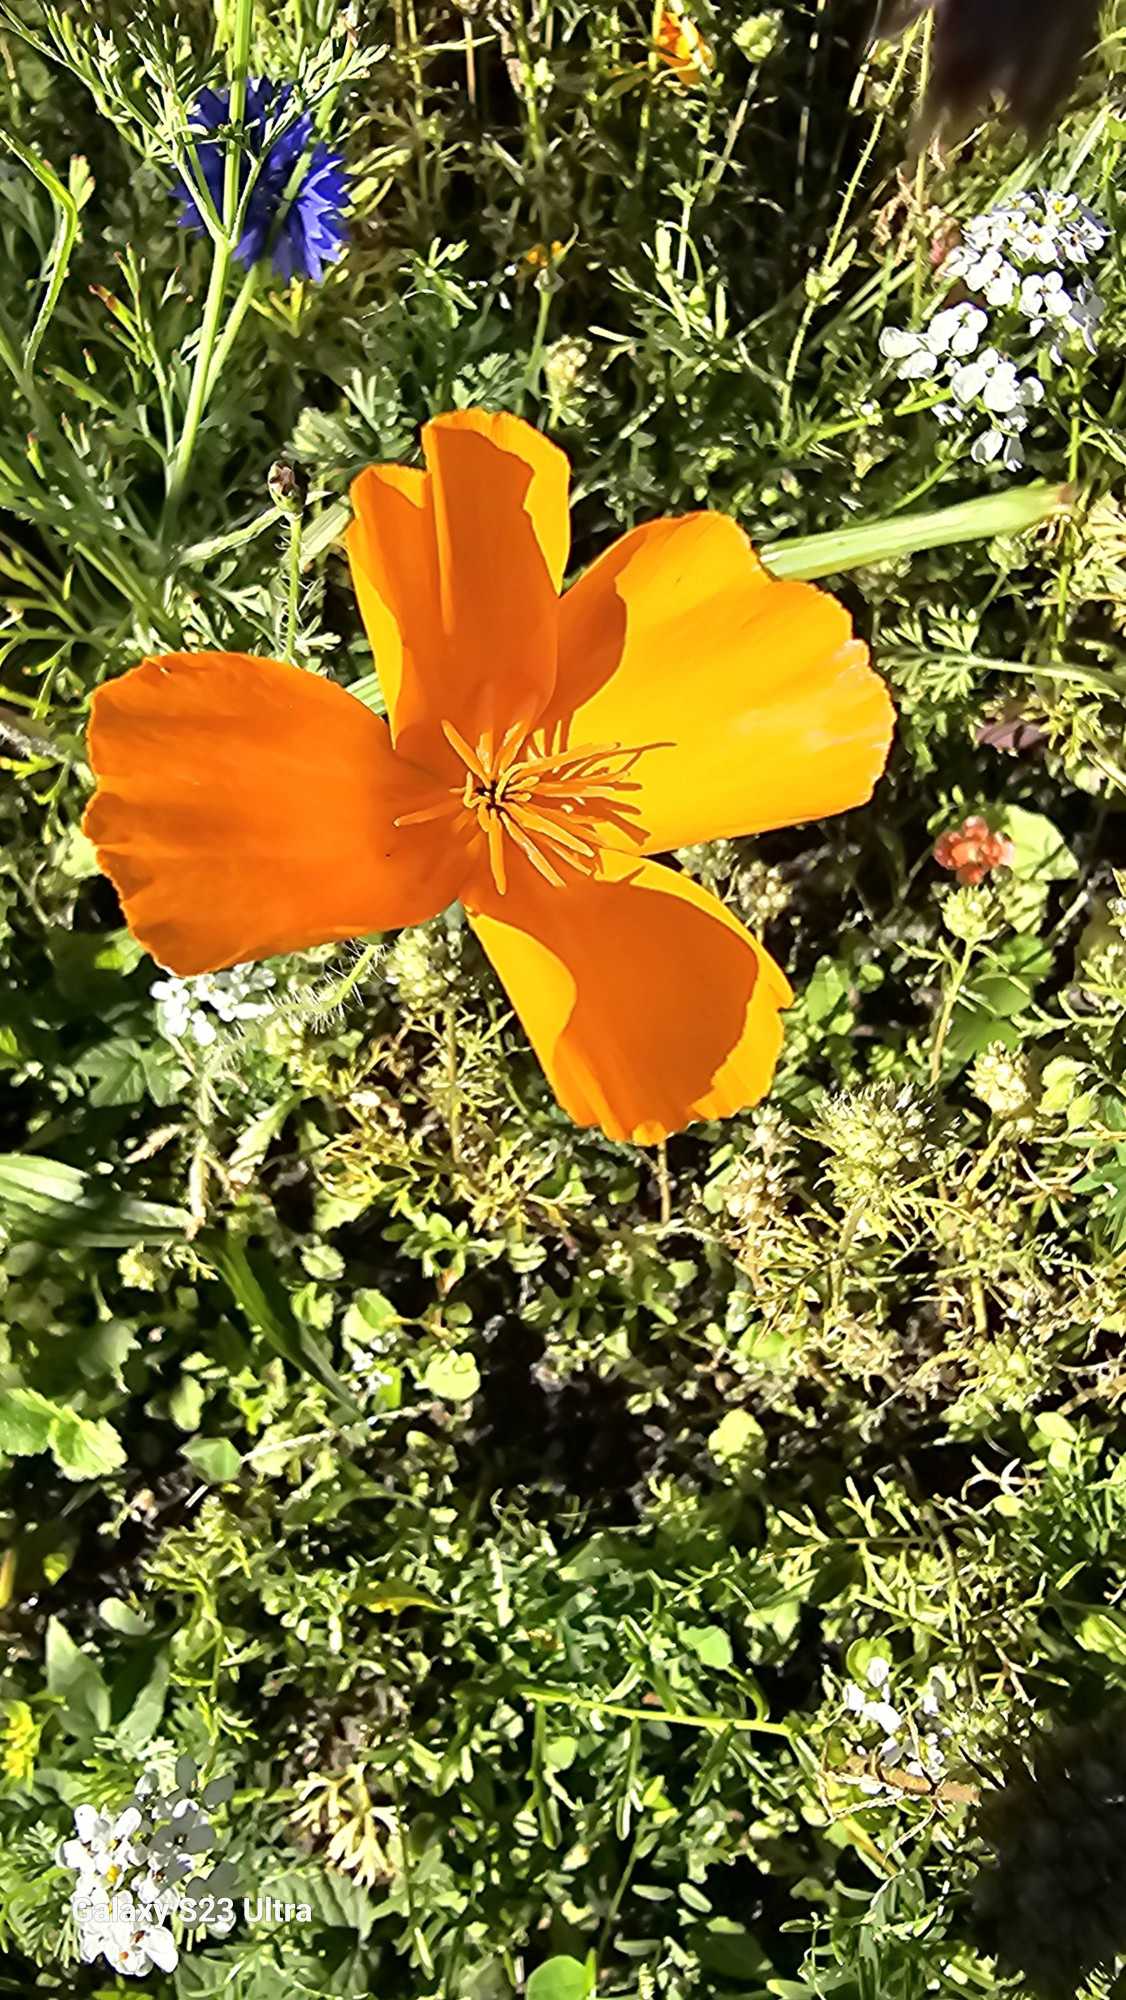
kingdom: Plantae
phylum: Tracheophyta
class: Magnoliopsida
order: Ranunculales
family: Papaveraceae
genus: Eschscholzia
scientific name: Eschscholzia californica
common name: Guldvalmue
